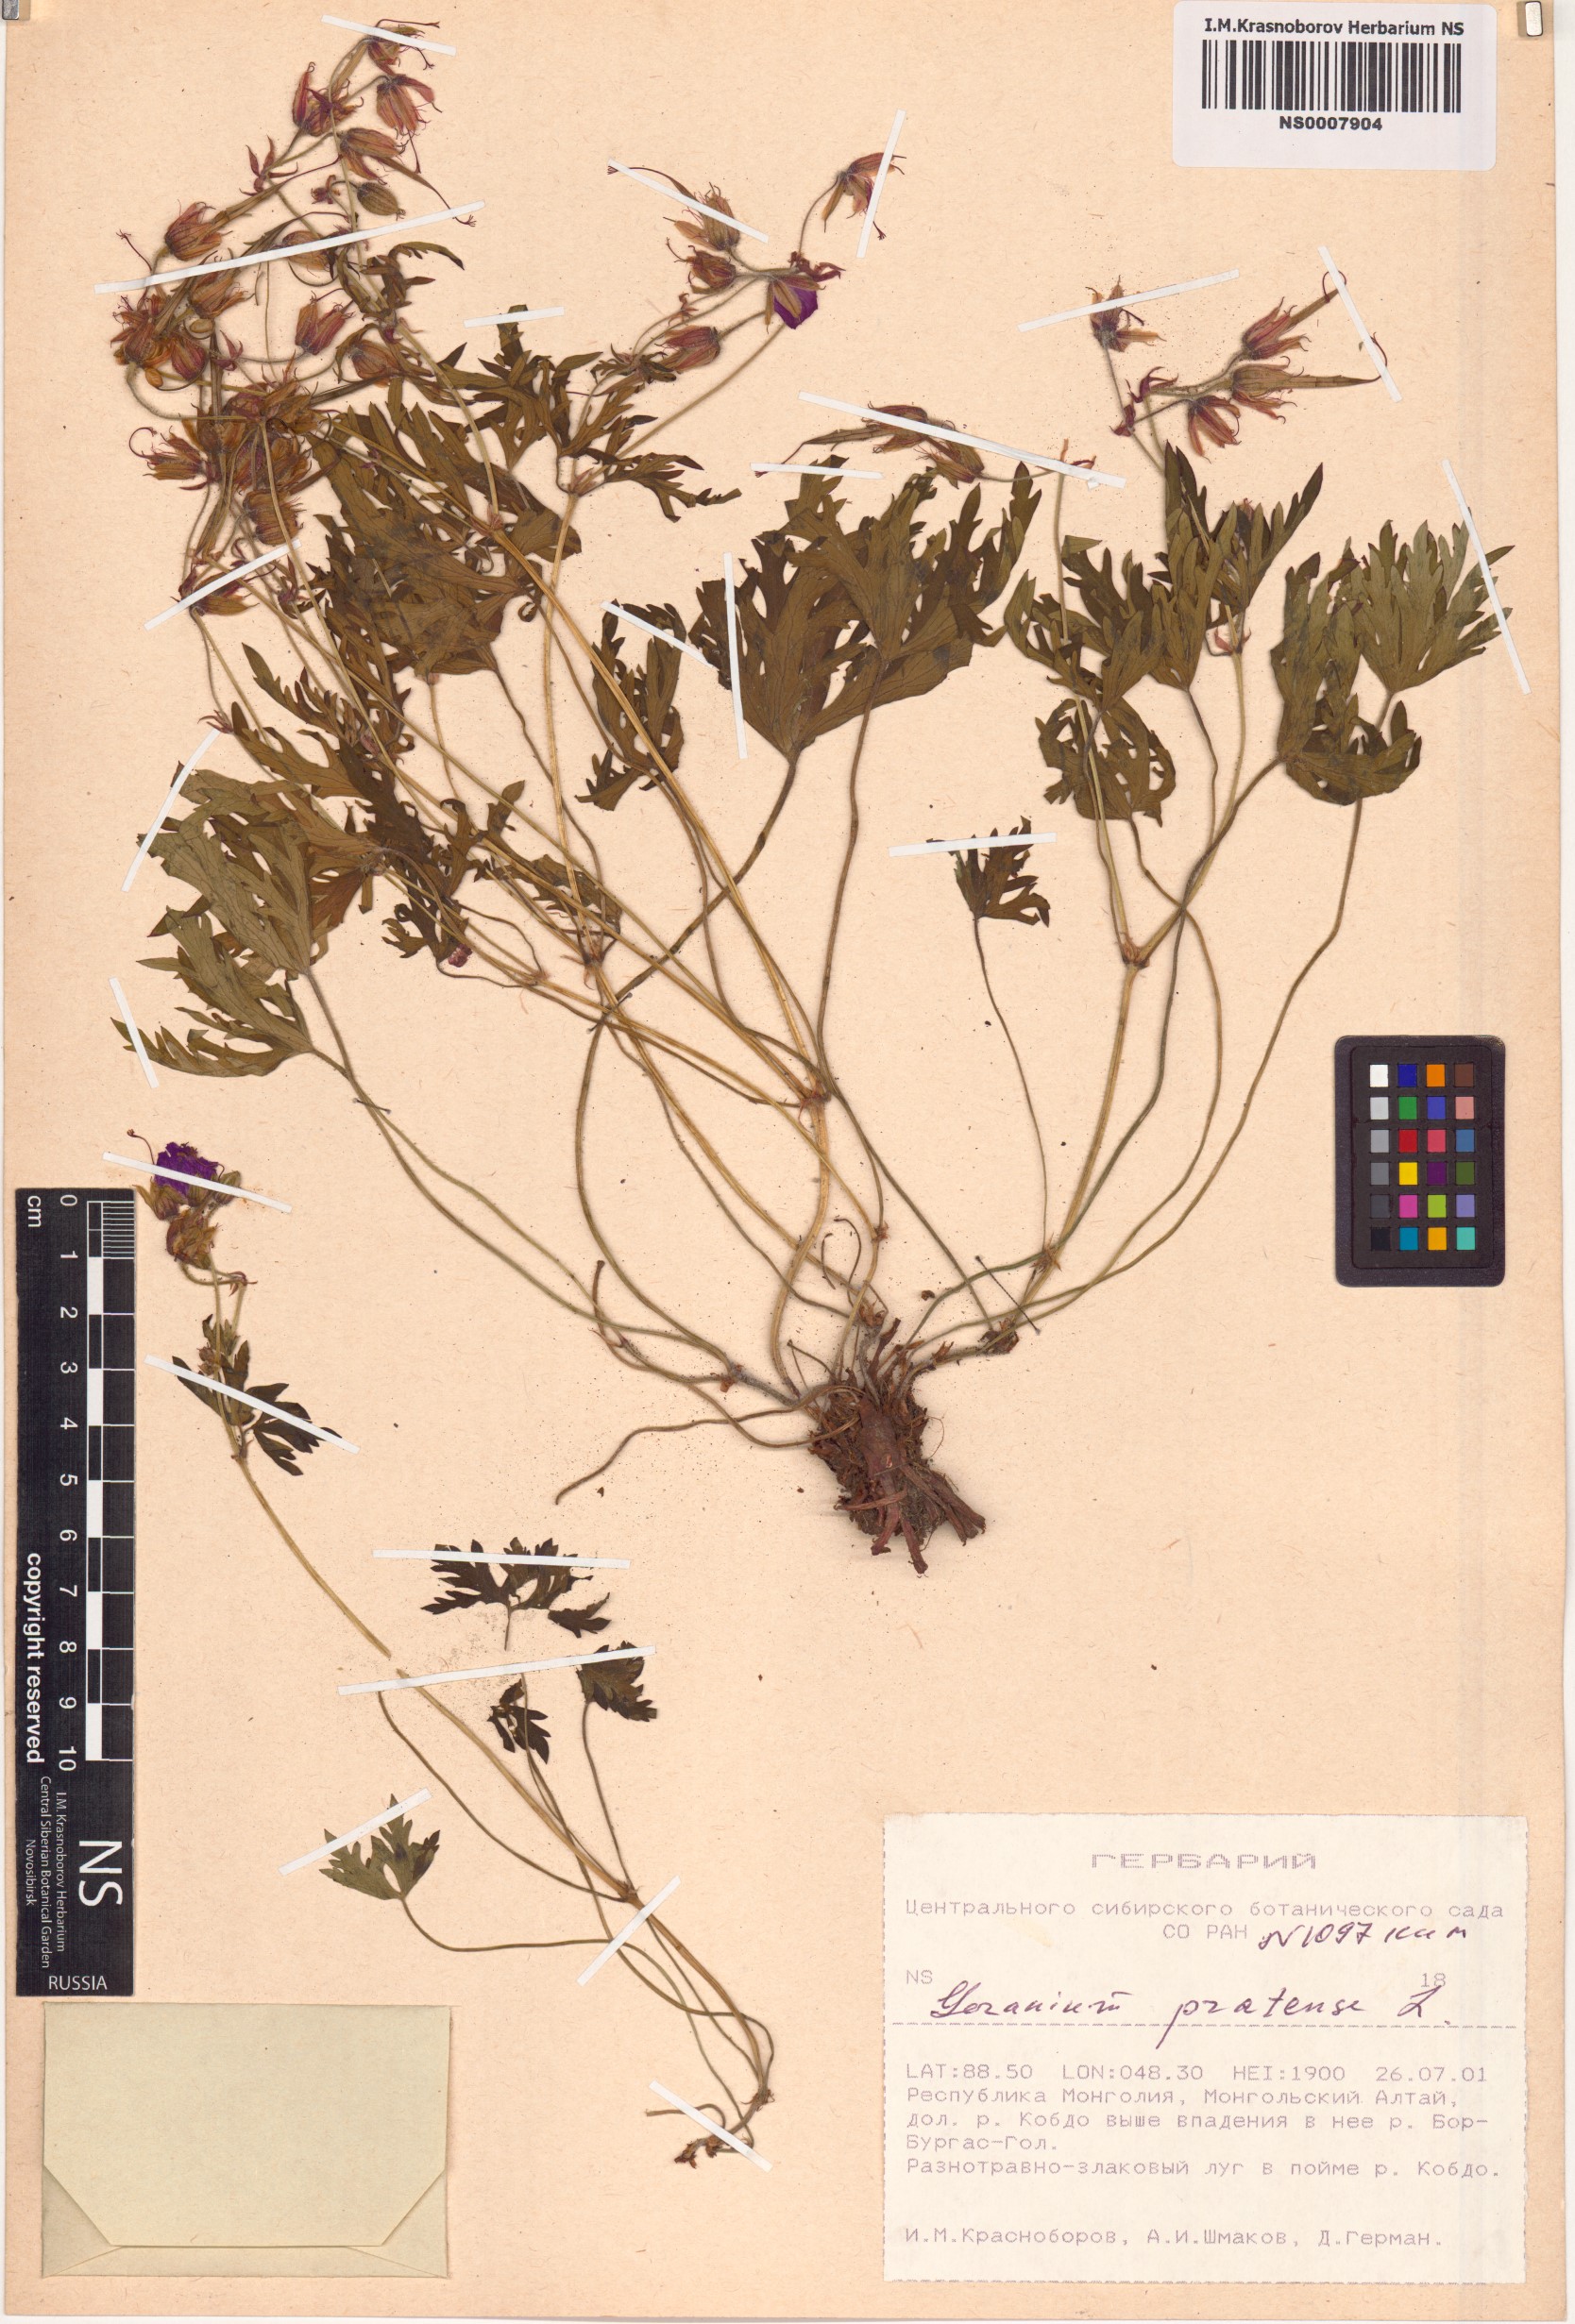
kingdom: Plantae
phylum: Tracheophyta
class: Magnoliopsida
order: Geraniales
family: Geraniaceae
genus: Geranium
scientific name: Geranium pratense
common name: Meadow crane's-bill
